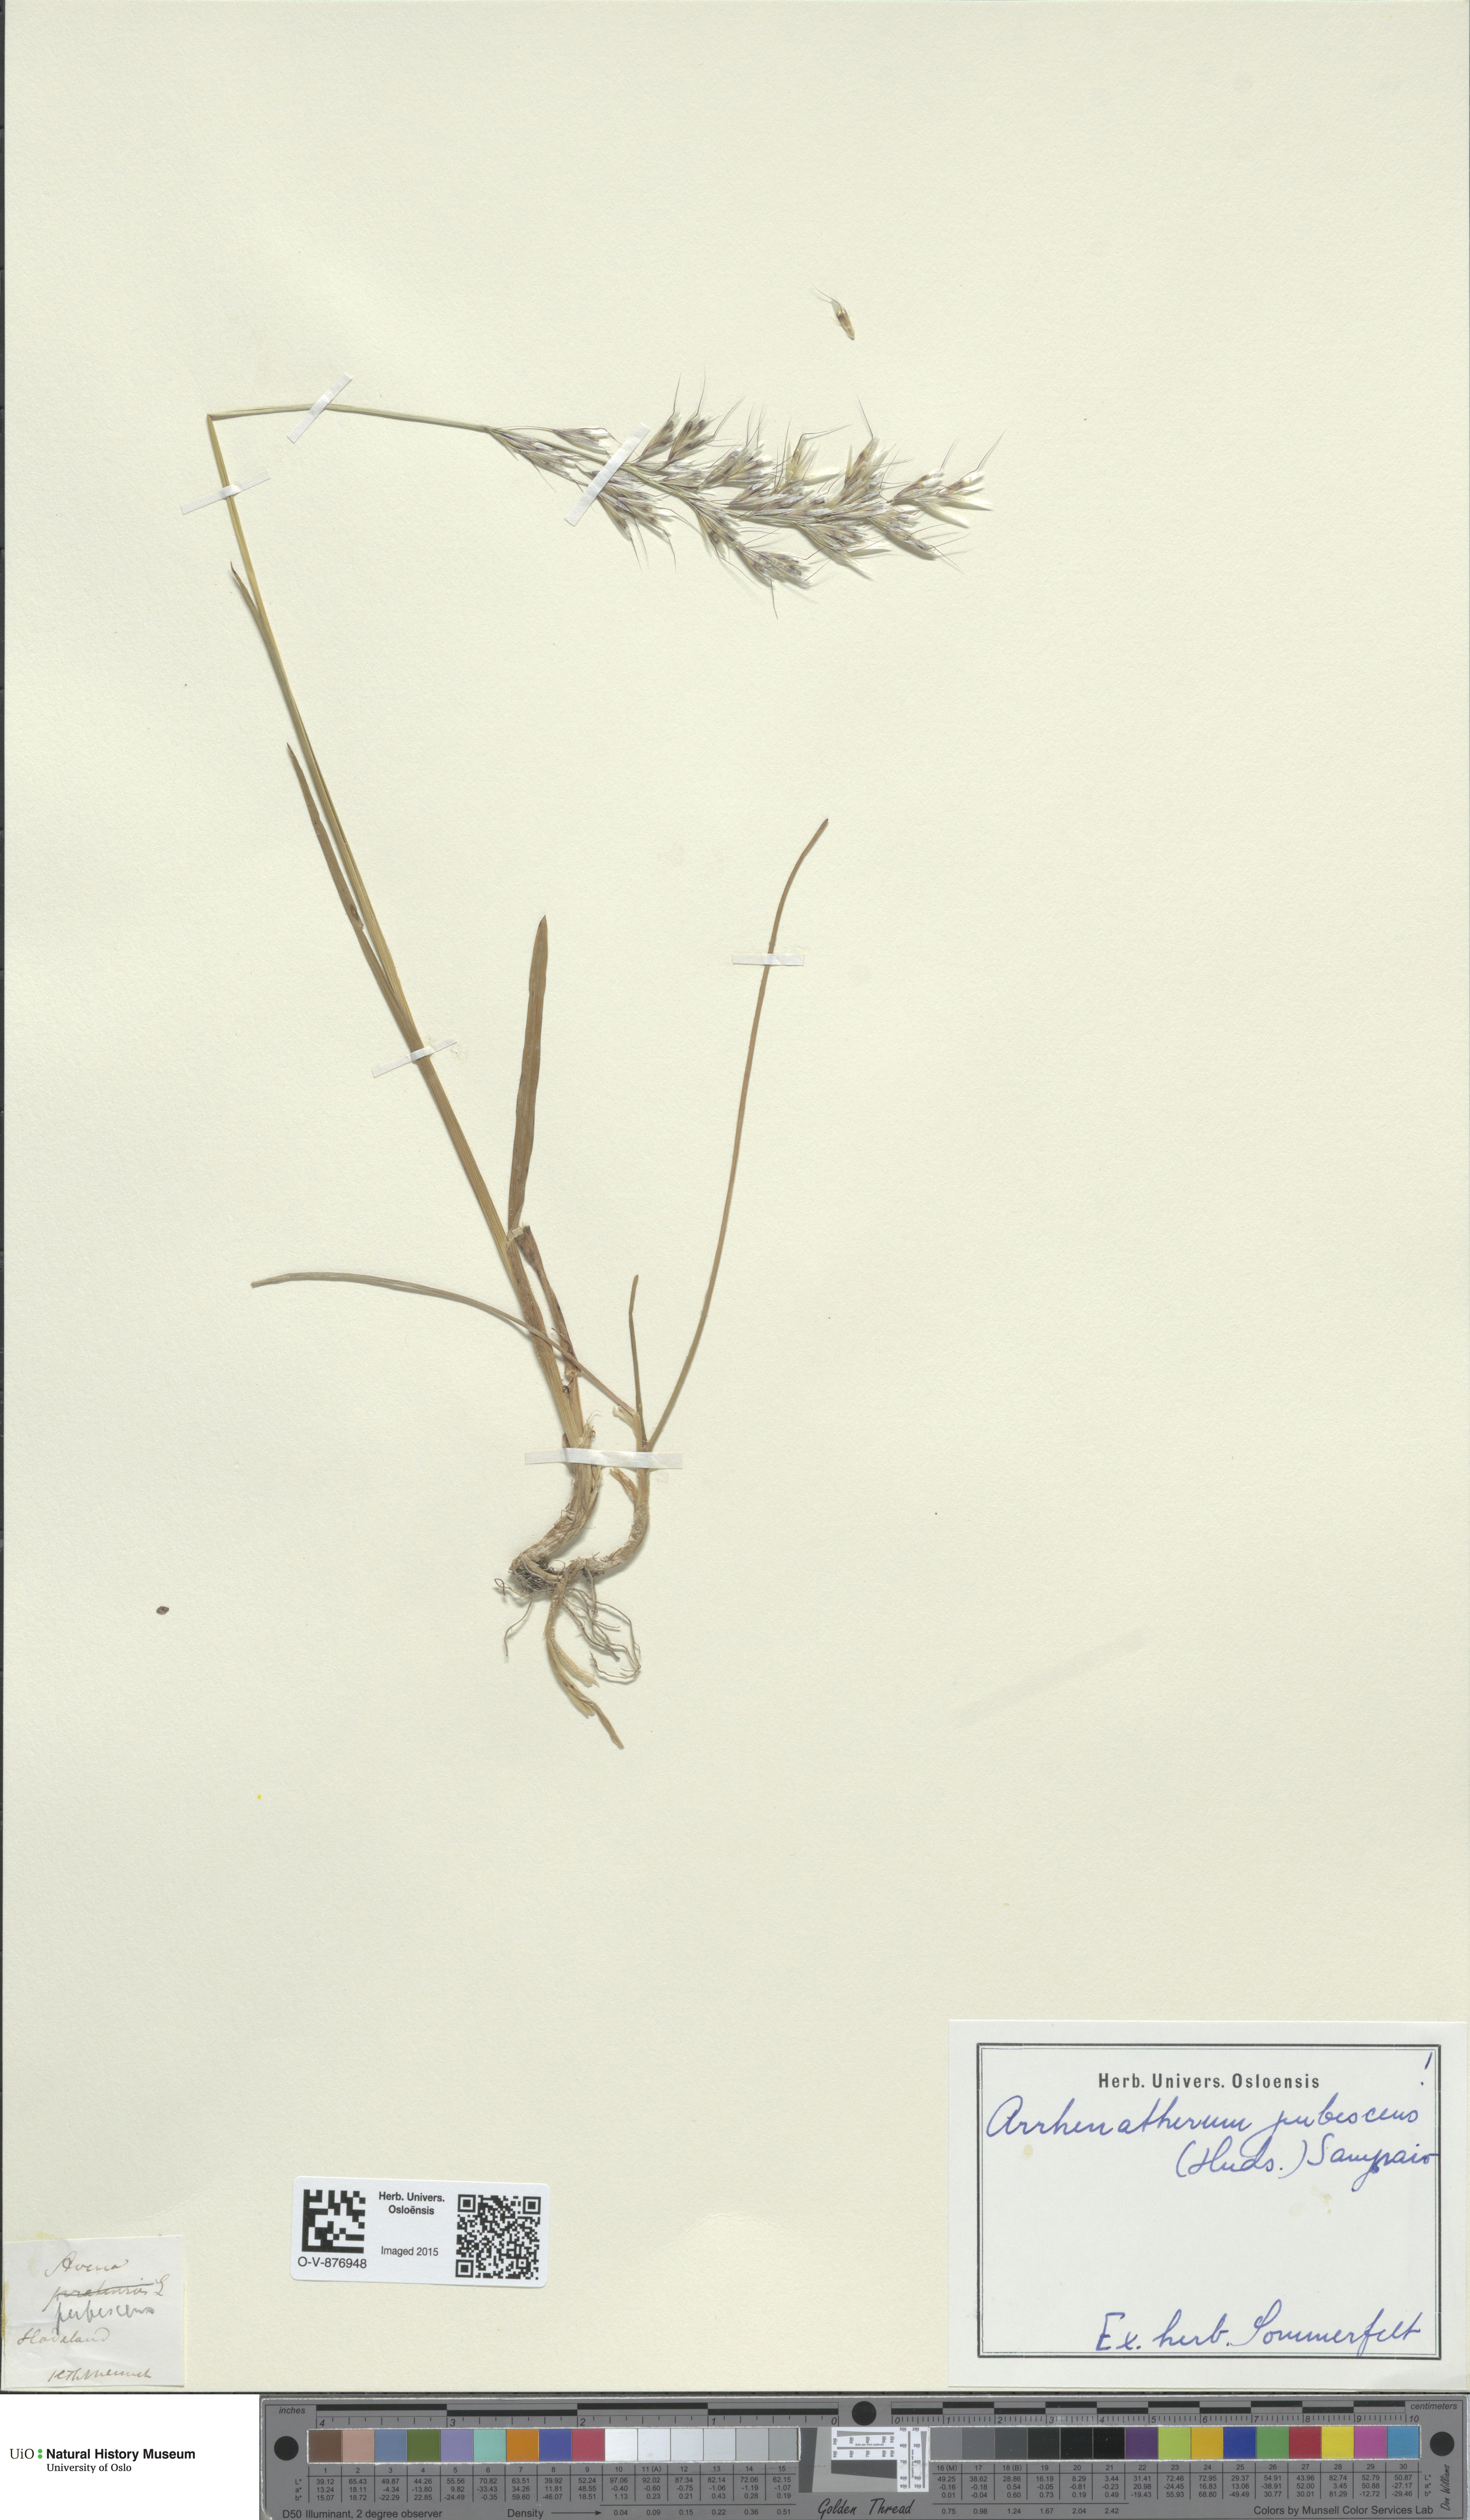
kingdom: Plantae
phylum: Tracheophyta
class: Liliopsida
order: Poales
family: Poaceae
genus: Avenula
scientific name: Avenula pubescens
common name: Downy alpine oatgrass
